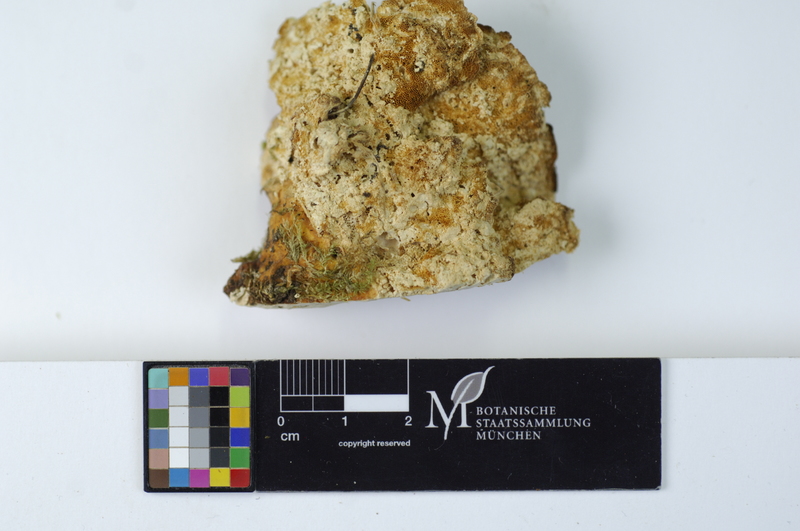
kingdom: Fungi
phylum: Basidiomycota
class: Agaricomycetes
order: Polyporales
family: Polyporaceae
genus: Trametes
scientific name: Trametes pubescens
